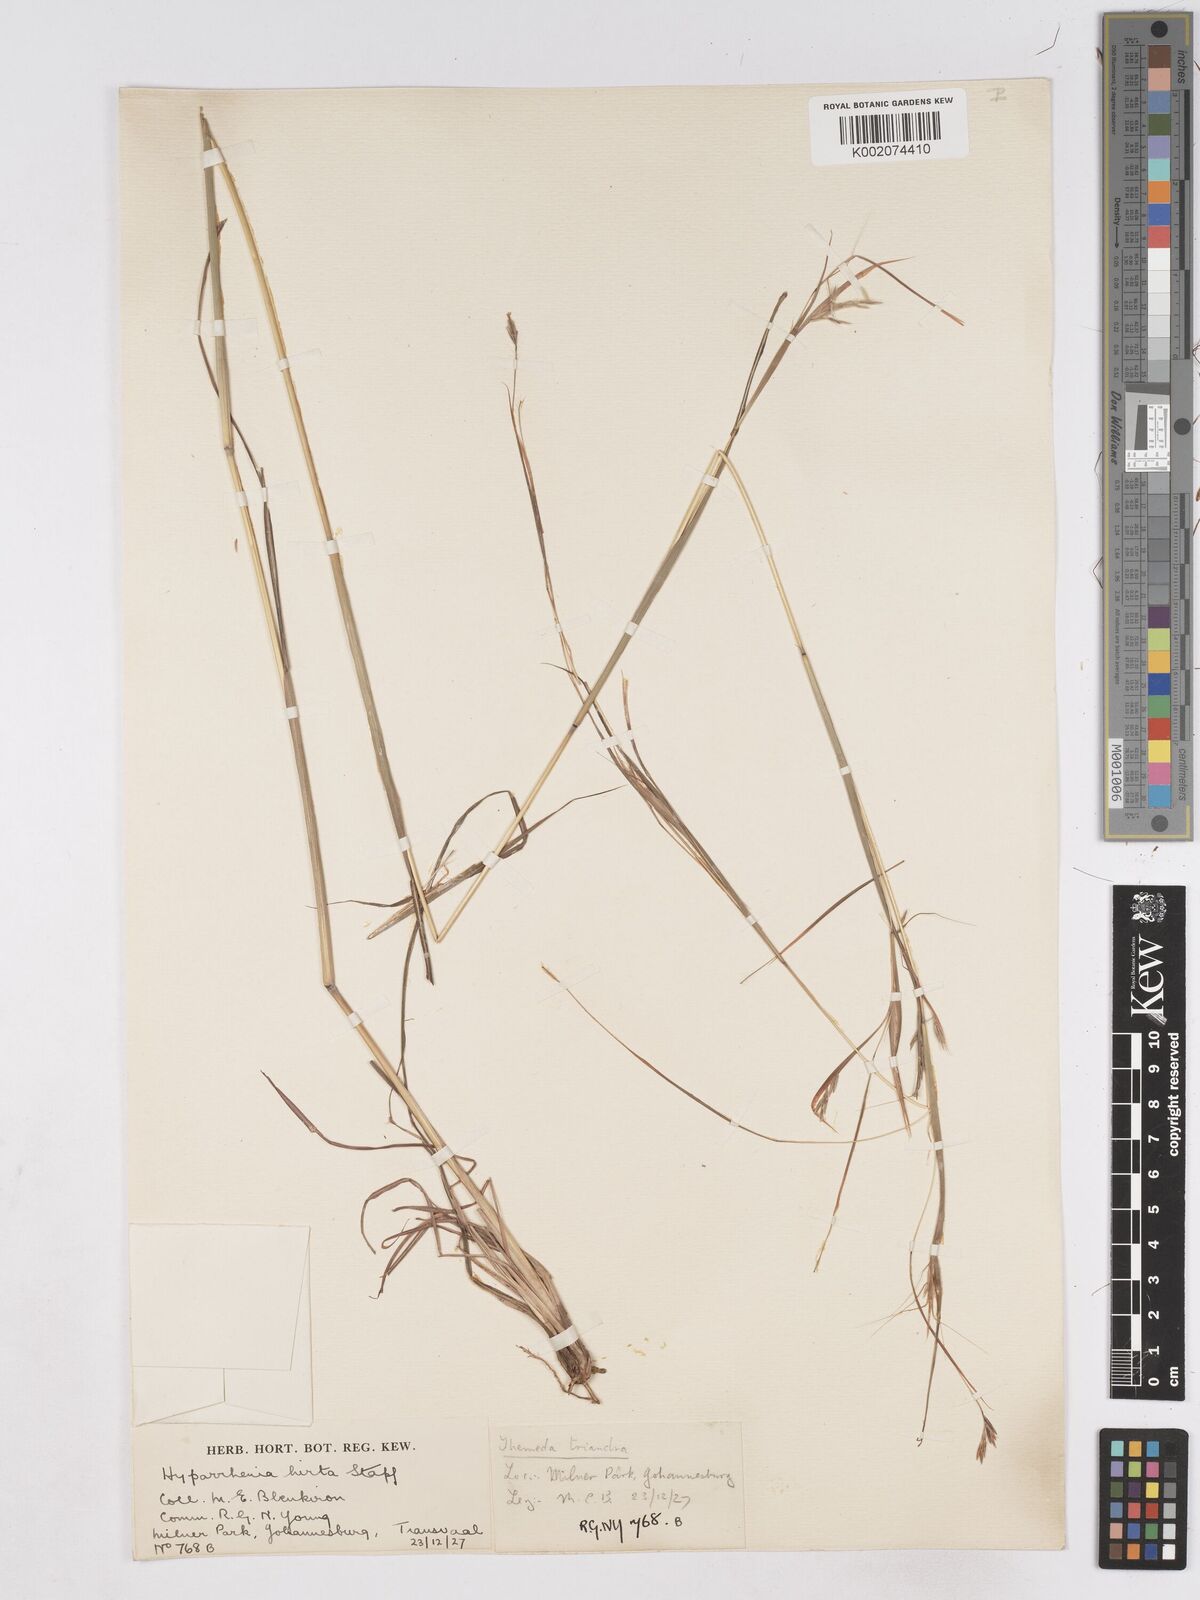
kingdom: Plantae
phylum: Tracheophyta
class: Liliopsida
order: Poales
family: Poaceae
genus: Hyparrhenia
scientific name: Hyparrhenia hirta
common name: Thatching grass
